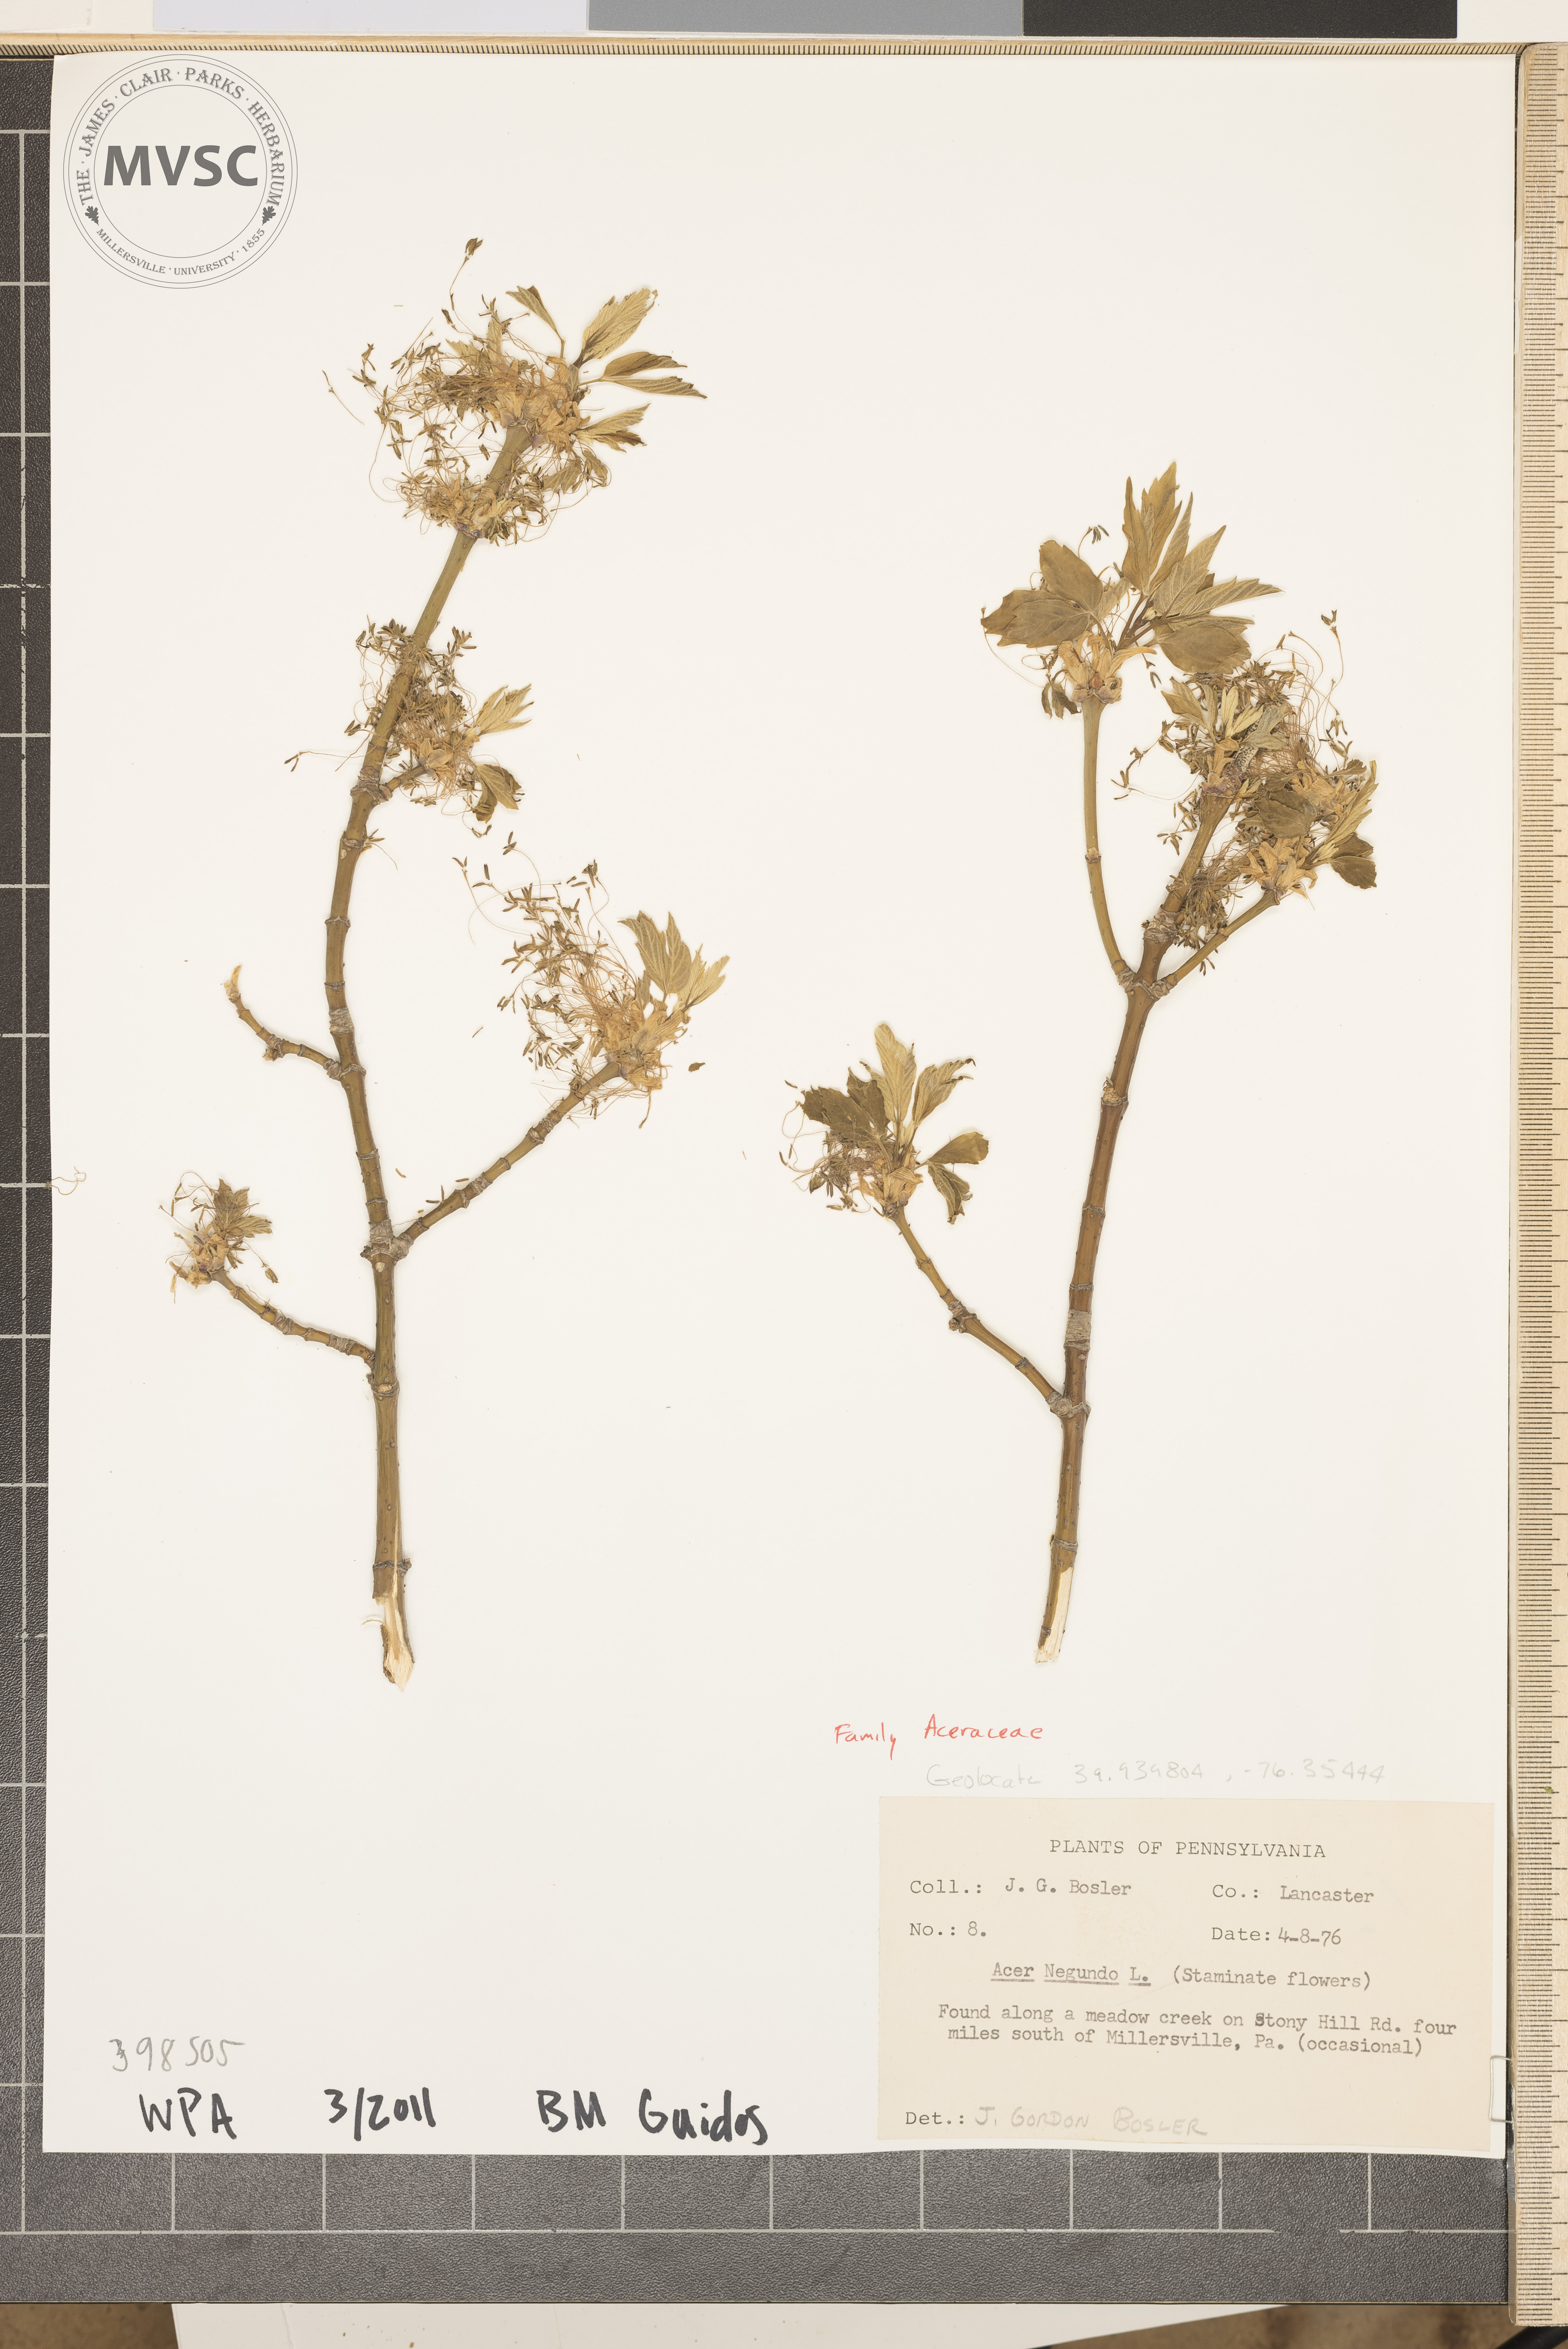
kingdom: Plantae
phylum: Tracheophyta
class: Magnoliopsida
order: Sapindales
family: Sapindaceae
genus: Acer
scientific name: Acer negundo
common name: Box-elder
